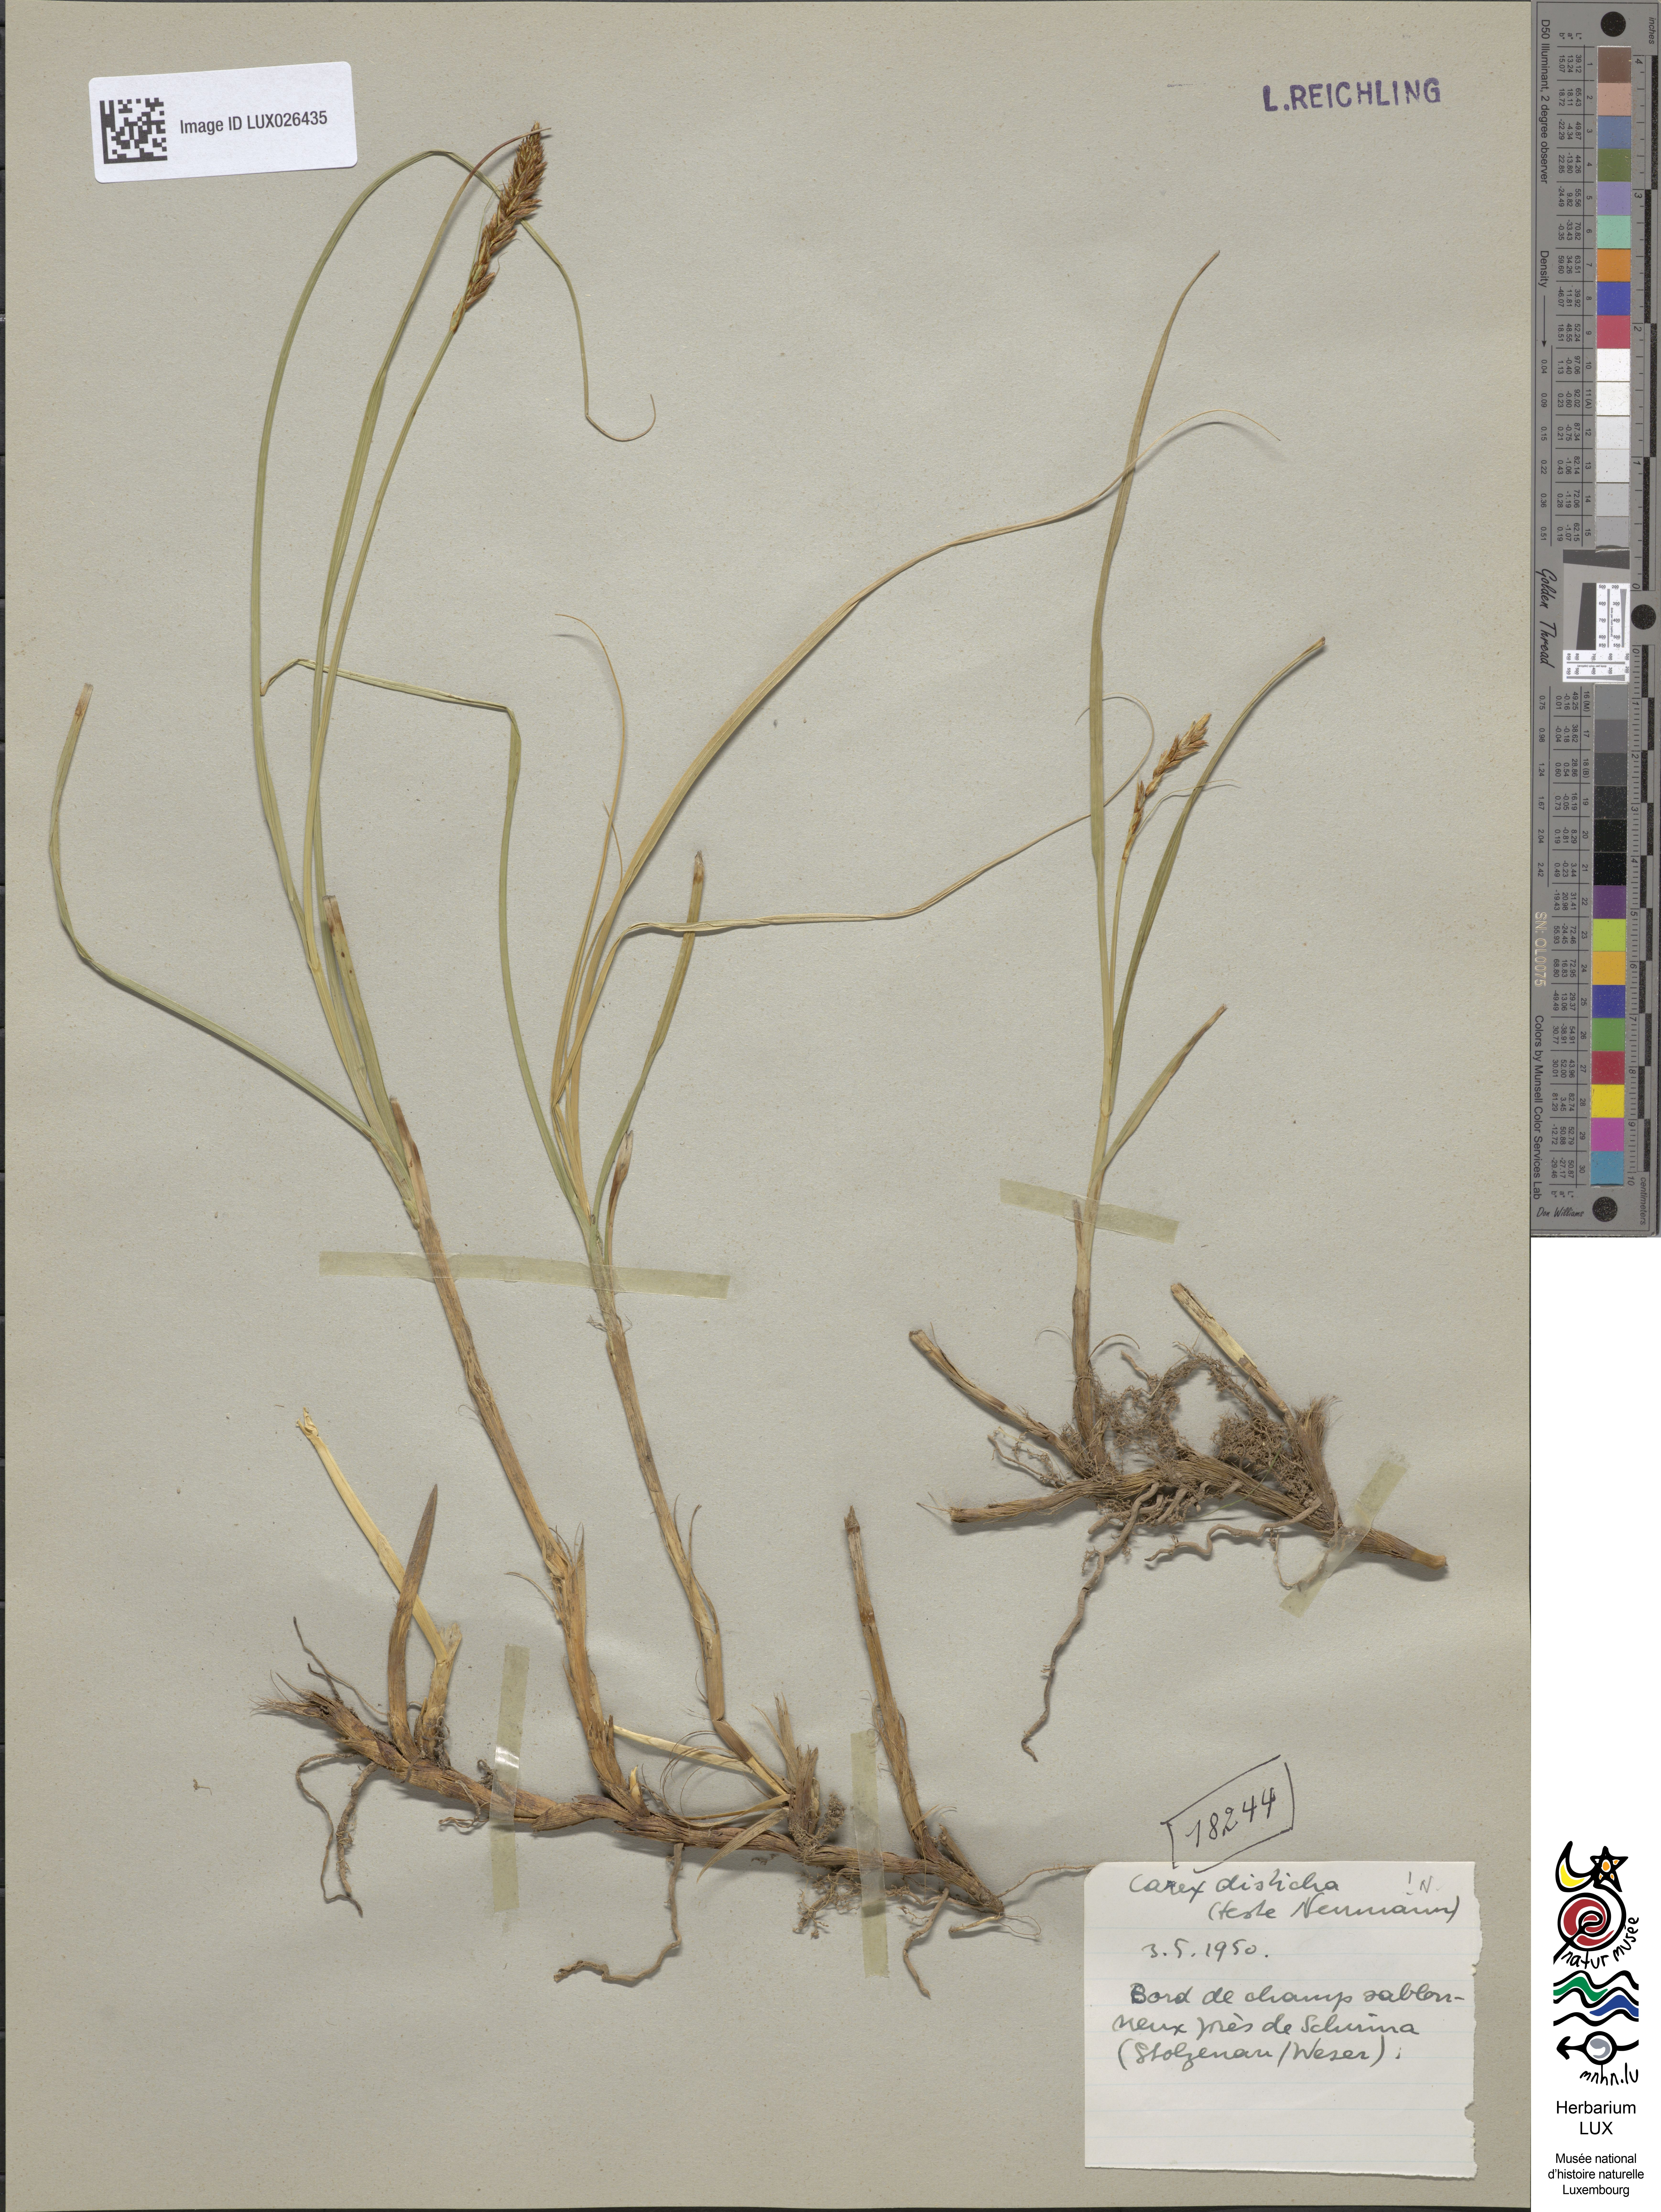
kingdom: Plantae
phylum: Tracheophyta
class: Liliopsida
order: Poales
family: Cyperaceae
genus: Carex
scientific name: Carex disticha
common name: Brown sedge
